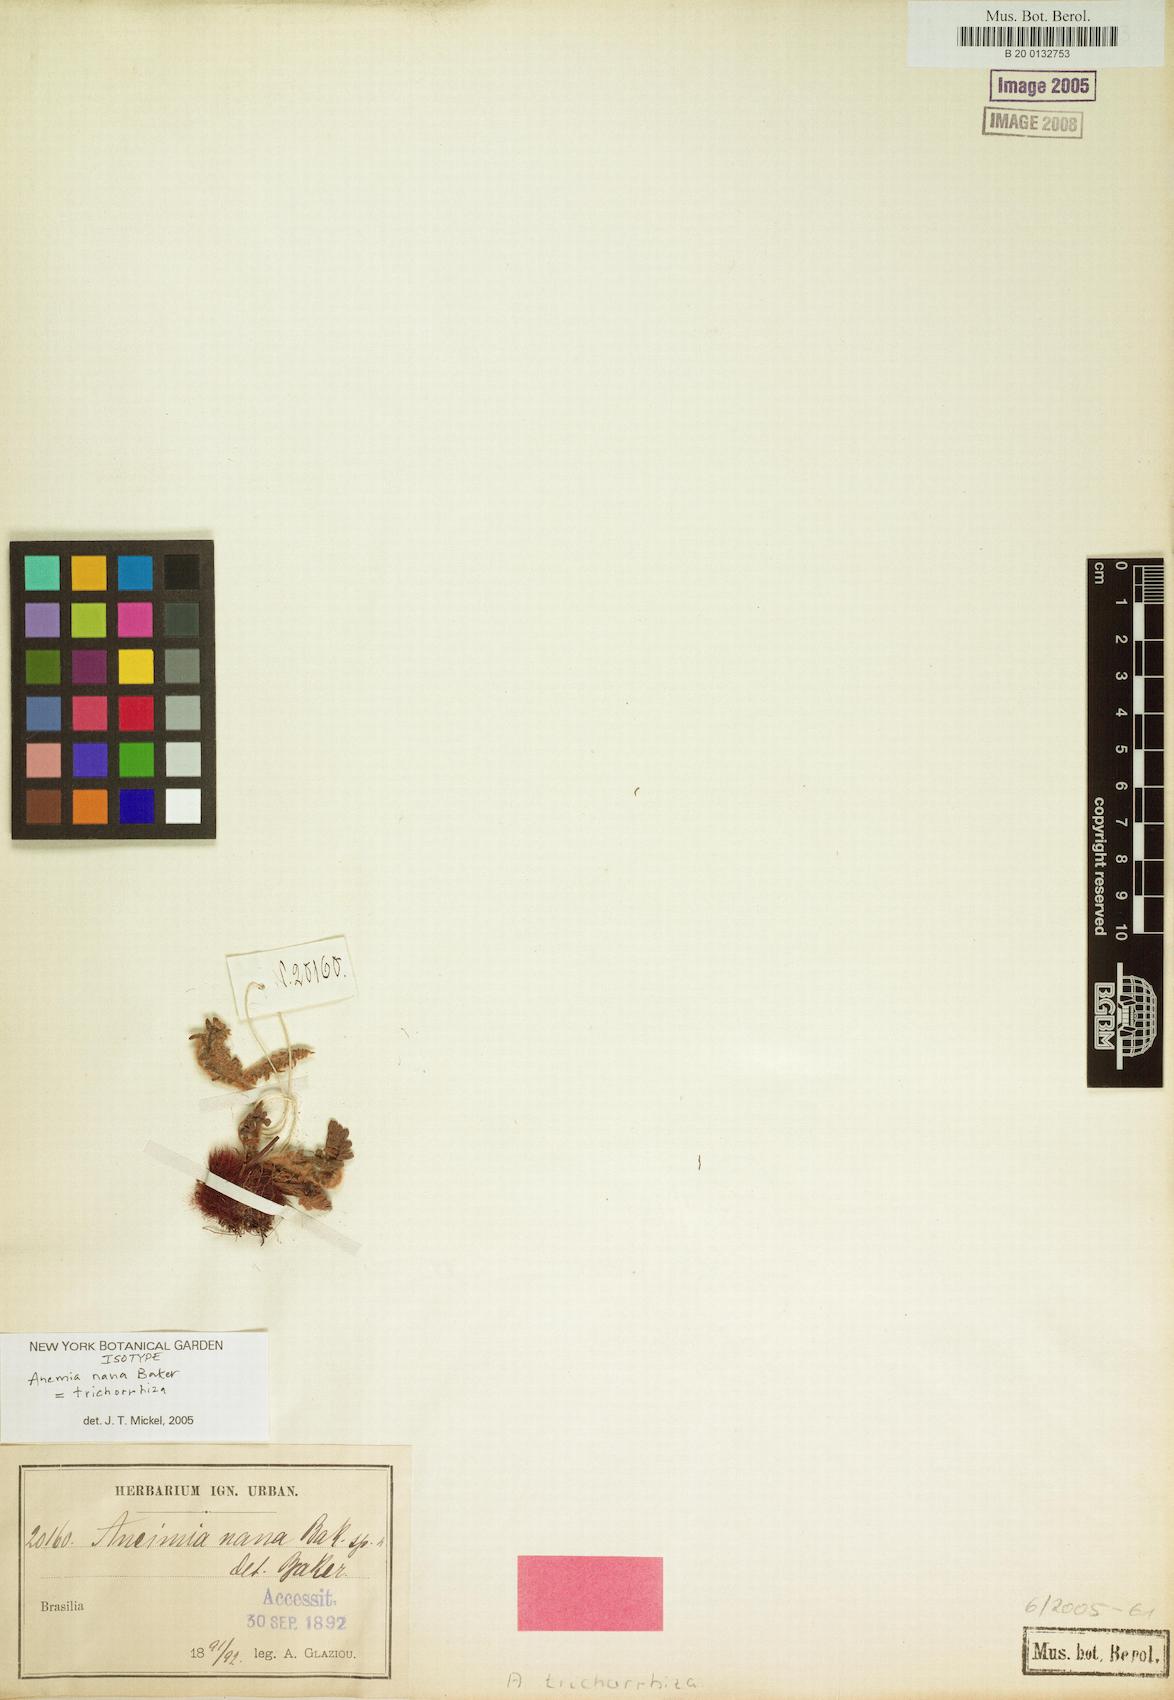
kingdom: Plantae
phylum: Tracheophyta
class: Polypodiopsida
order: Schizaeales
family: Anemiaceae
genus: Anemia
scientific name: Anemia trichorhiza
